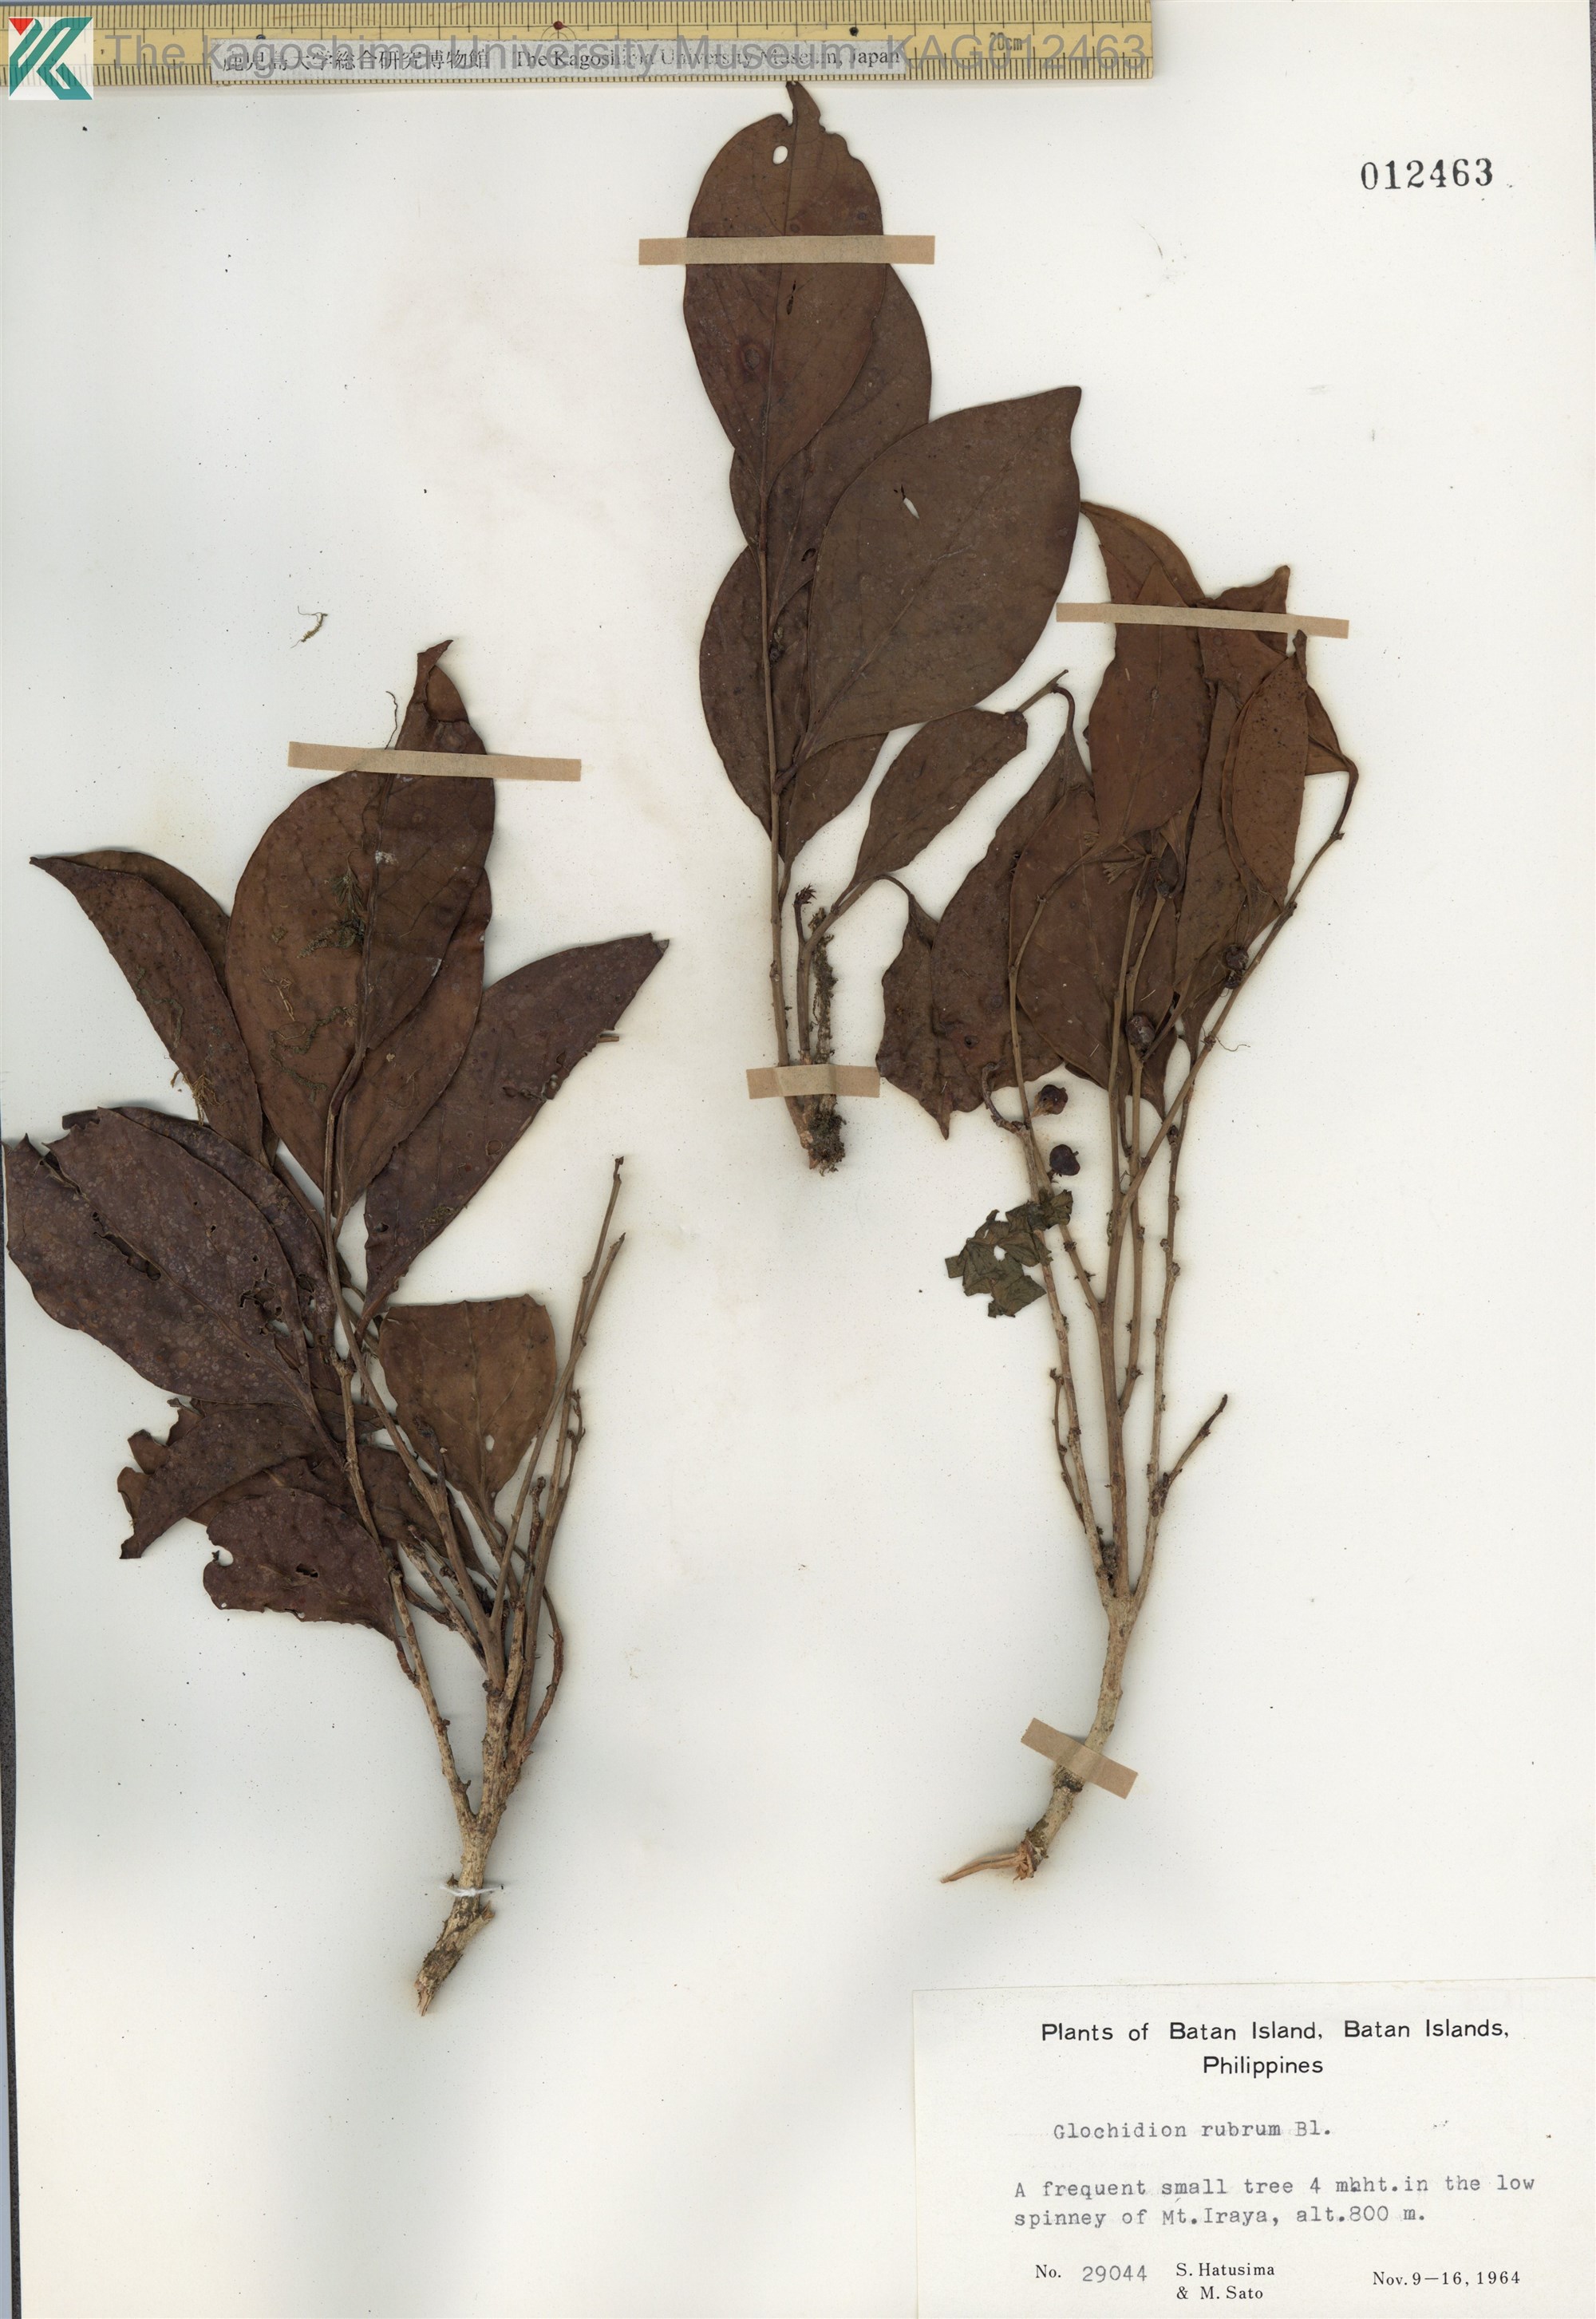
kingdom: Plantae
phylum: Tracheophyta
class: Magnoliopsida
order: Malpighiales
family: Phyllanthaceae
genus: Glochidion
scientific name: Glochidion rubrum
